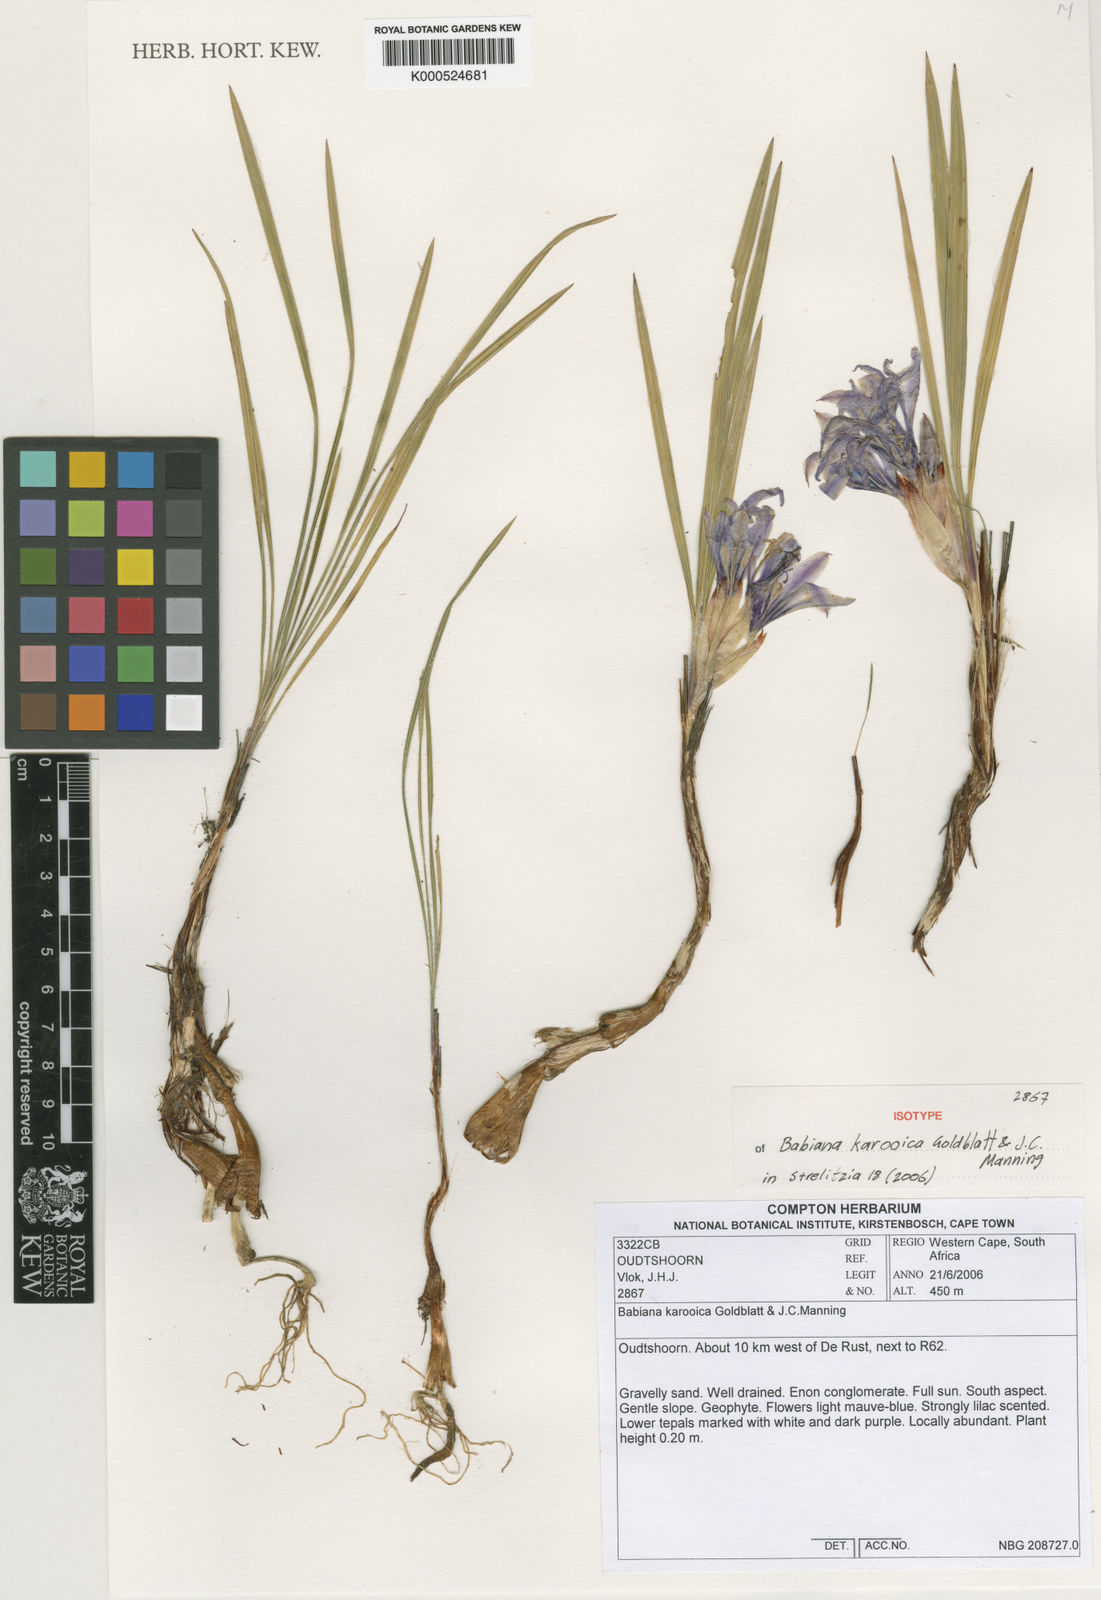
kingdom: Plantae
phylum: Tracheophyta
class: Liliopsida
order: Asparagales
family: Iridaceae
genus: Babiana
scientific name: Babiana karooica
